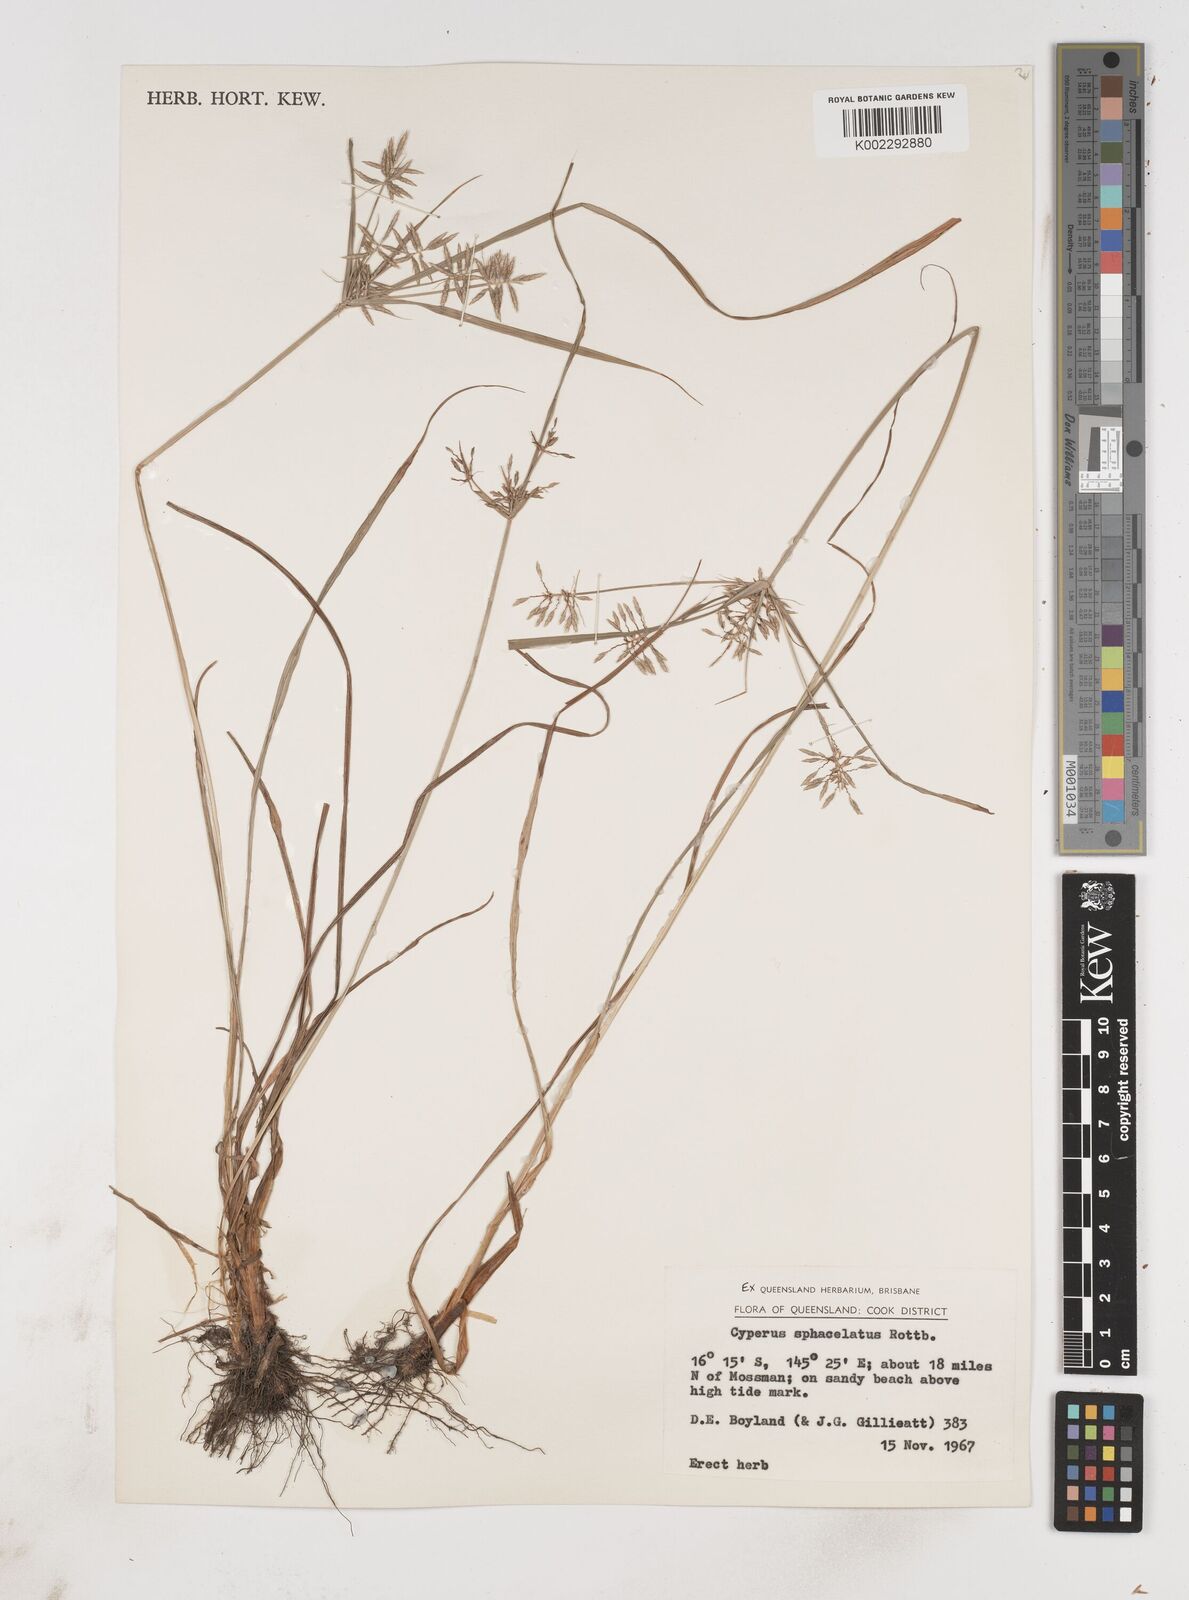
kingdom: Plantae
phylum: Tracheophyta
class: Liliopsida
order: Poales
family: Cyperaceae
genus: Cyperus
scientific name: Cyperus sphacelatus
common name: Roadside flatsedge
